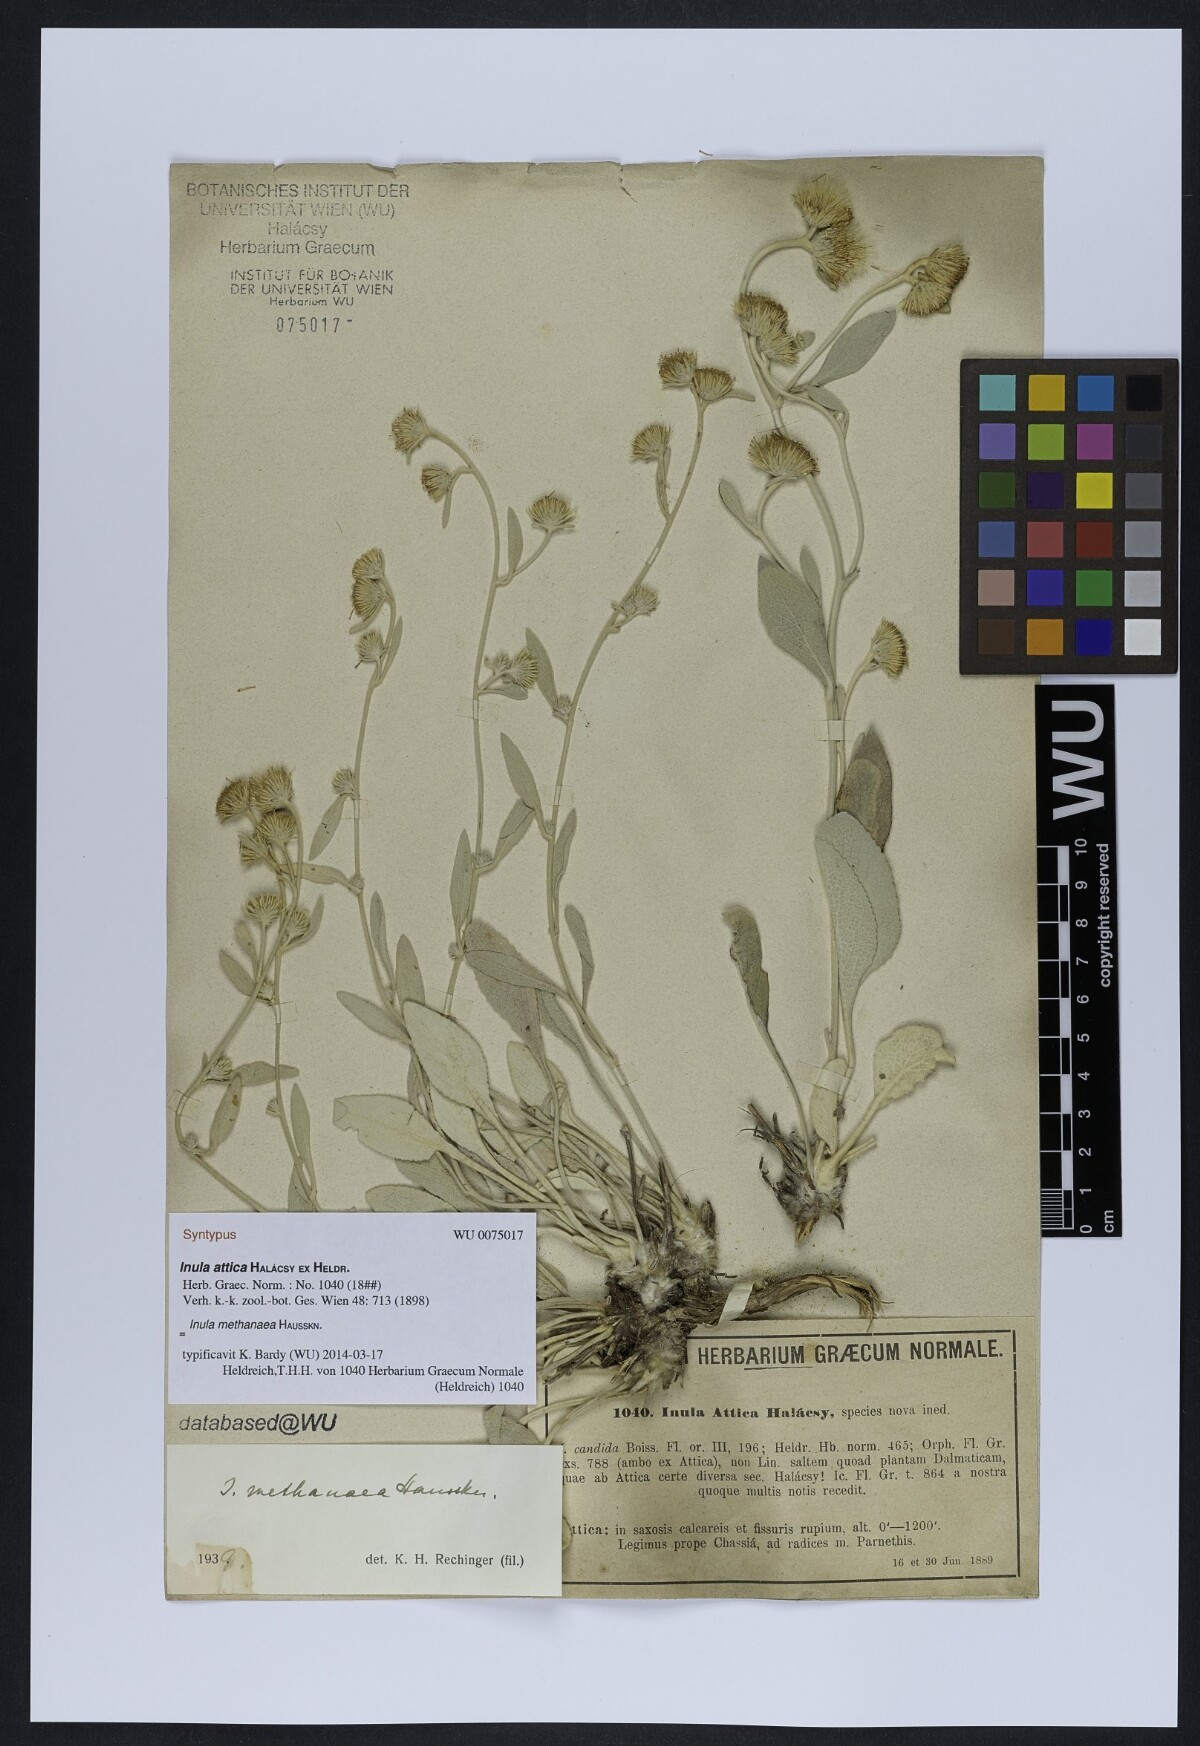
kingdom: Plantae
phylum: Tracheophyta
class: Magnoliopsida
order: Asterales
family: Asteraceae
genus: Pentanema
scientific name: Pentanema verbascifolium
